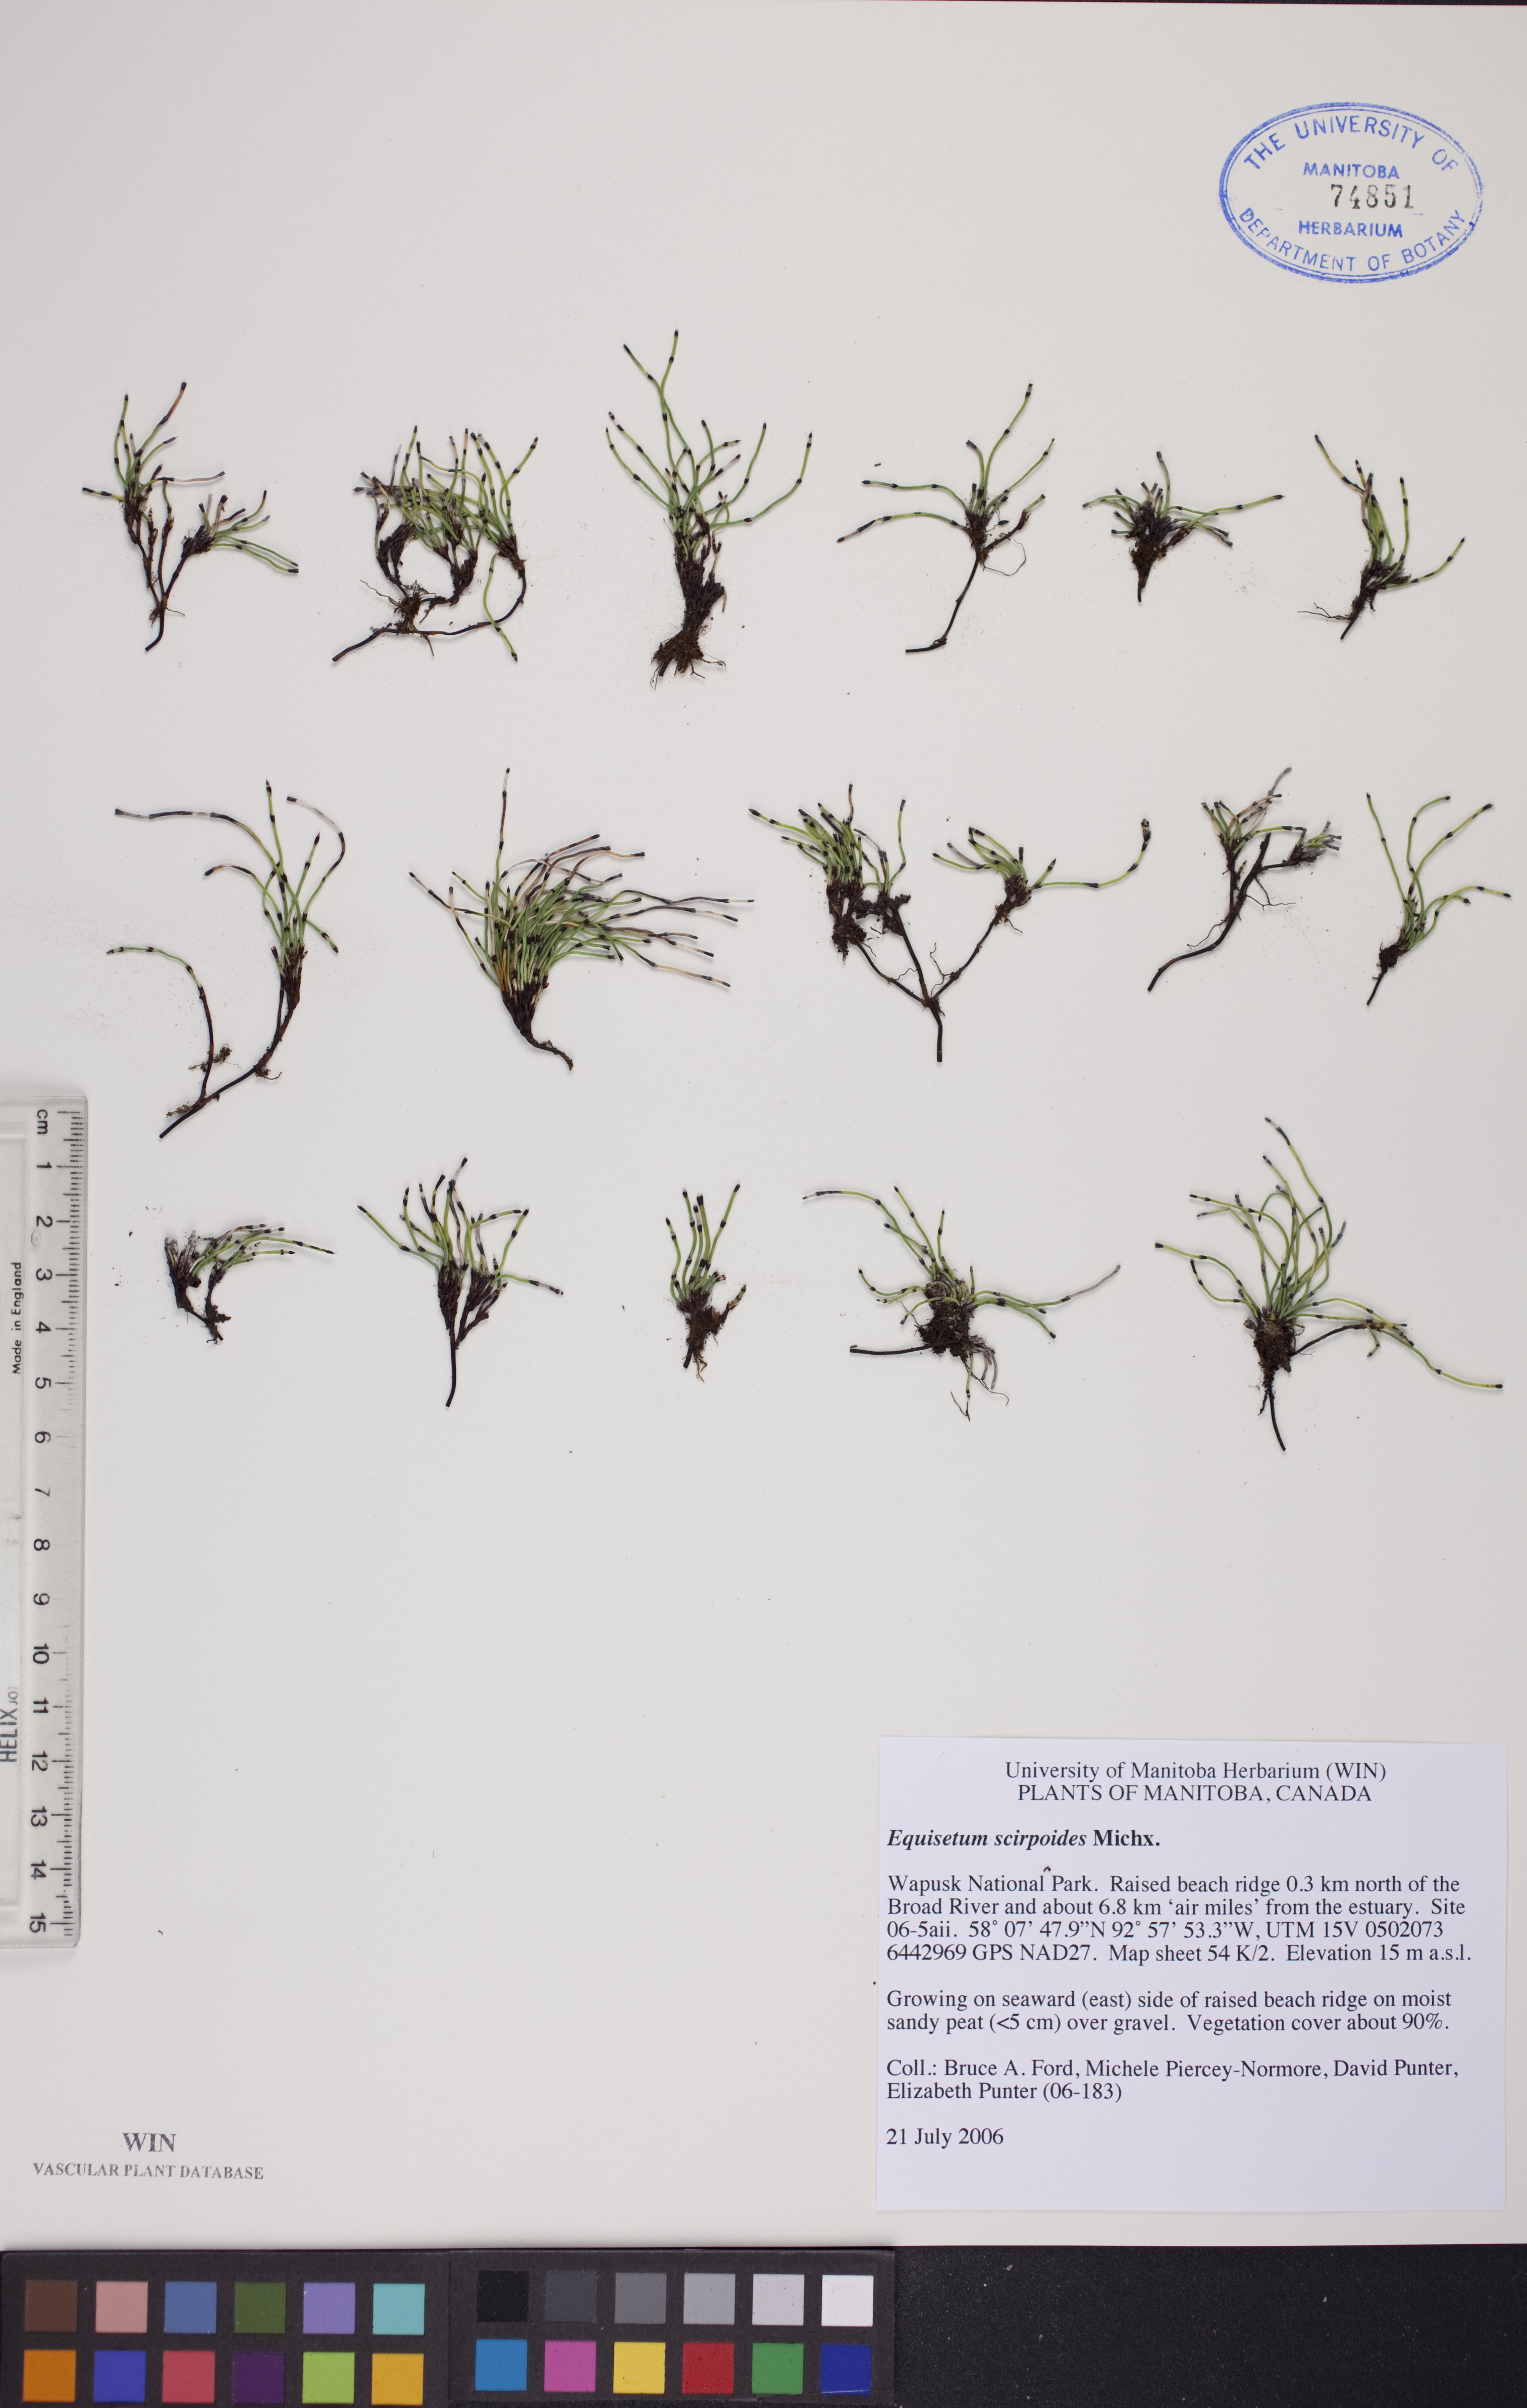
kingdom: Plantae
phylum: Tracheophyta
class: Polypodiopsida
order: Equisetales
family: Equisetaceae
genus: Equisetum
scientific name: Equisetum scirpoides
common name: Delicate horsetail
